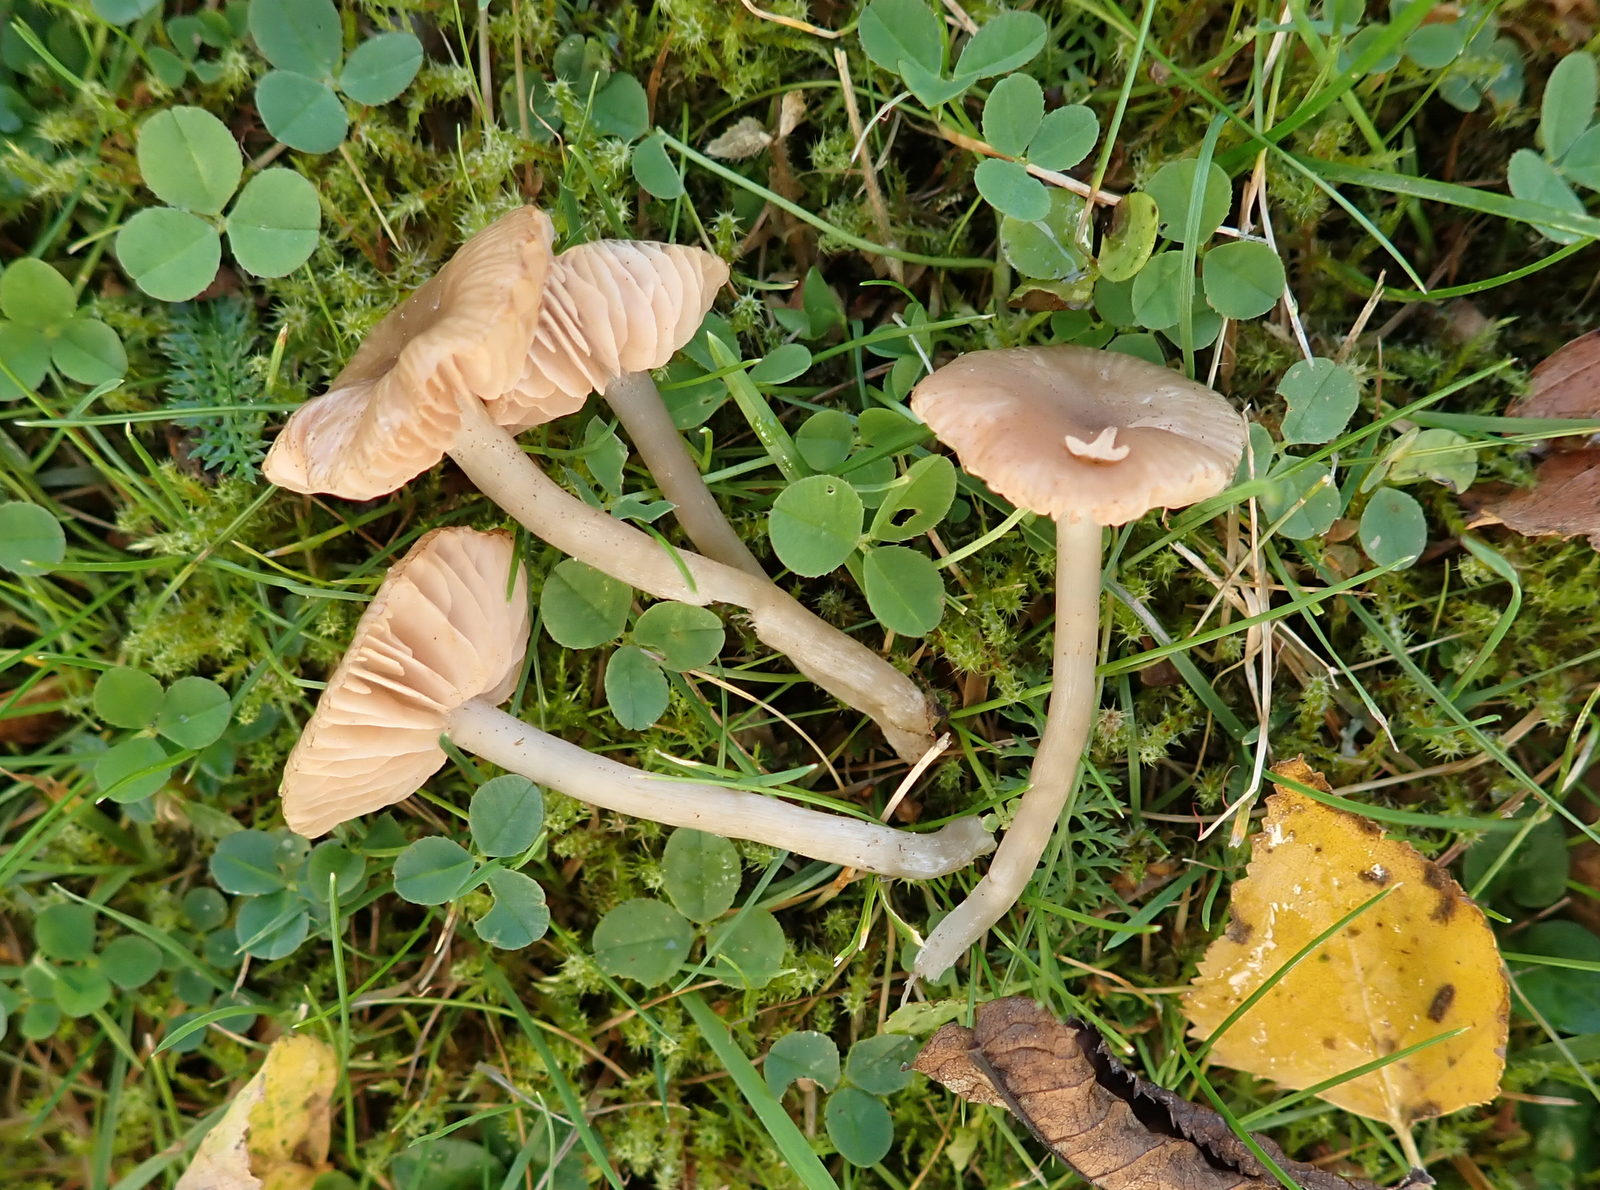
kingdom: Fungi
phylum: Basidiomycota
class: Agaricomycetes
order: Agaricales
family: Entolomataceae
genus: Entoloma
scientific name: Entoloma
